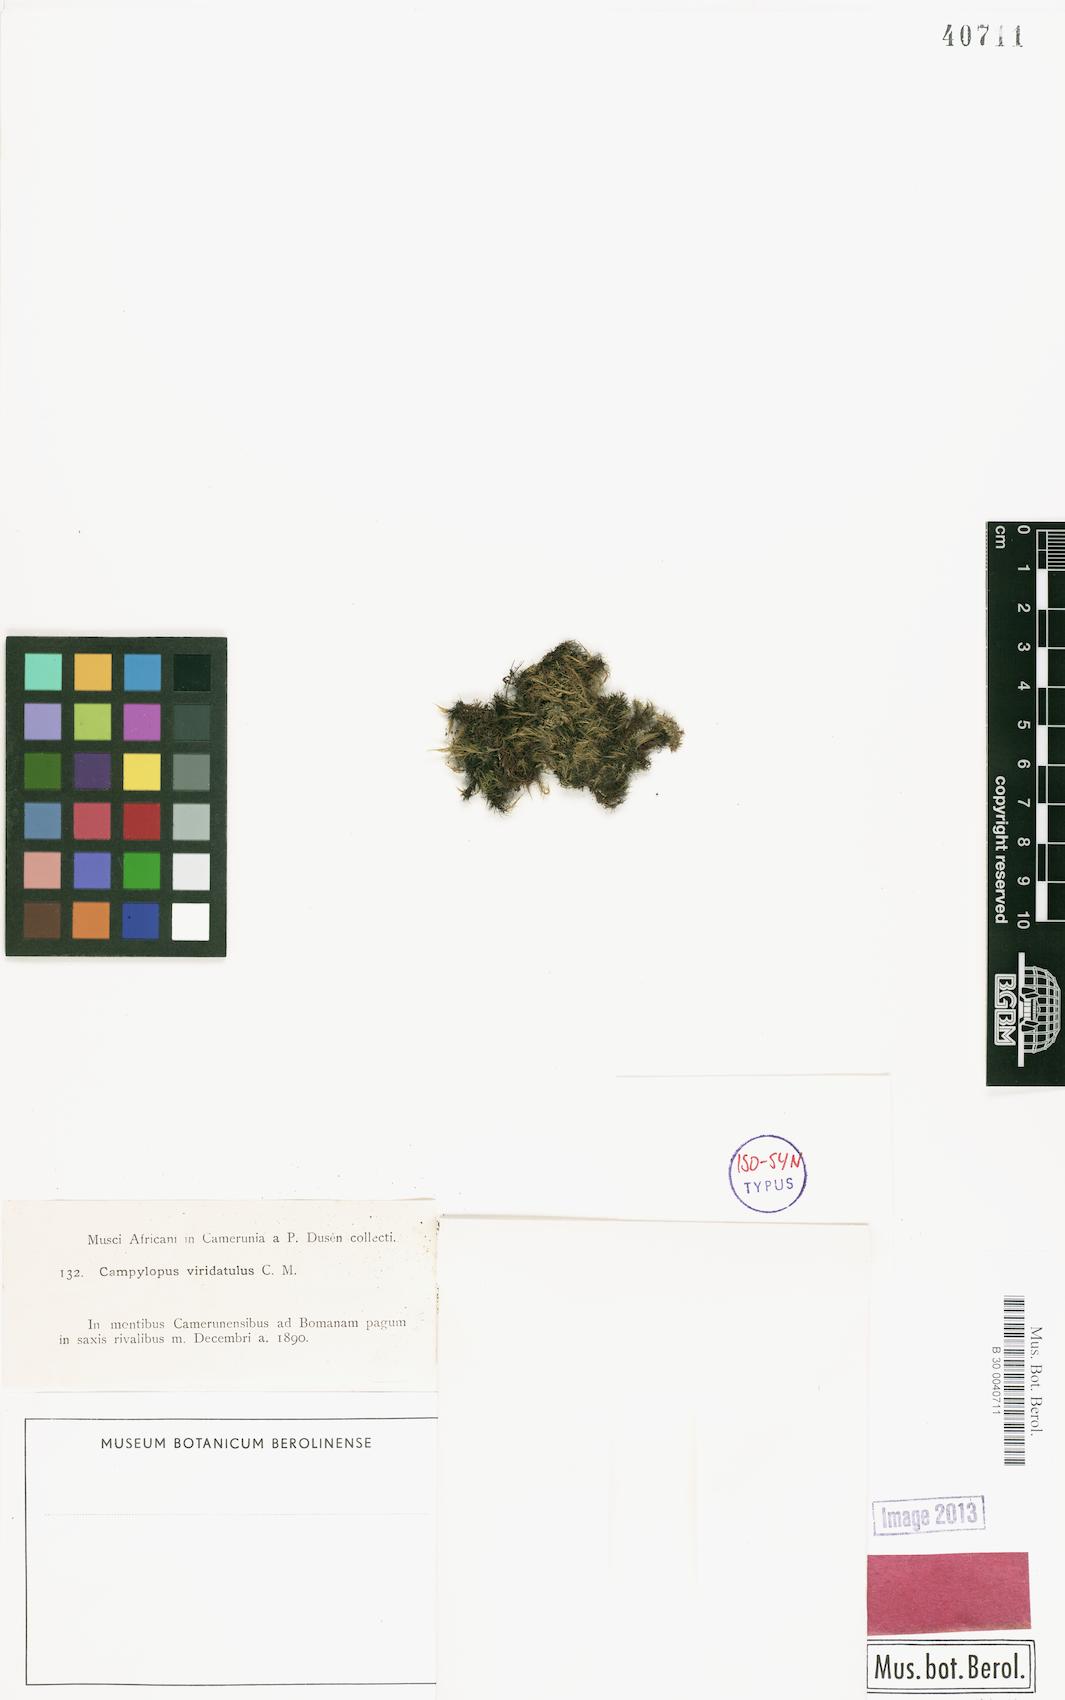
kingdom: Plantae
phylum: Bryophyta
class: Bryopsida
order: Dicranales
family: Leucobryaceae
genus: Campylopus
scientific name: Campylopus savannarum
